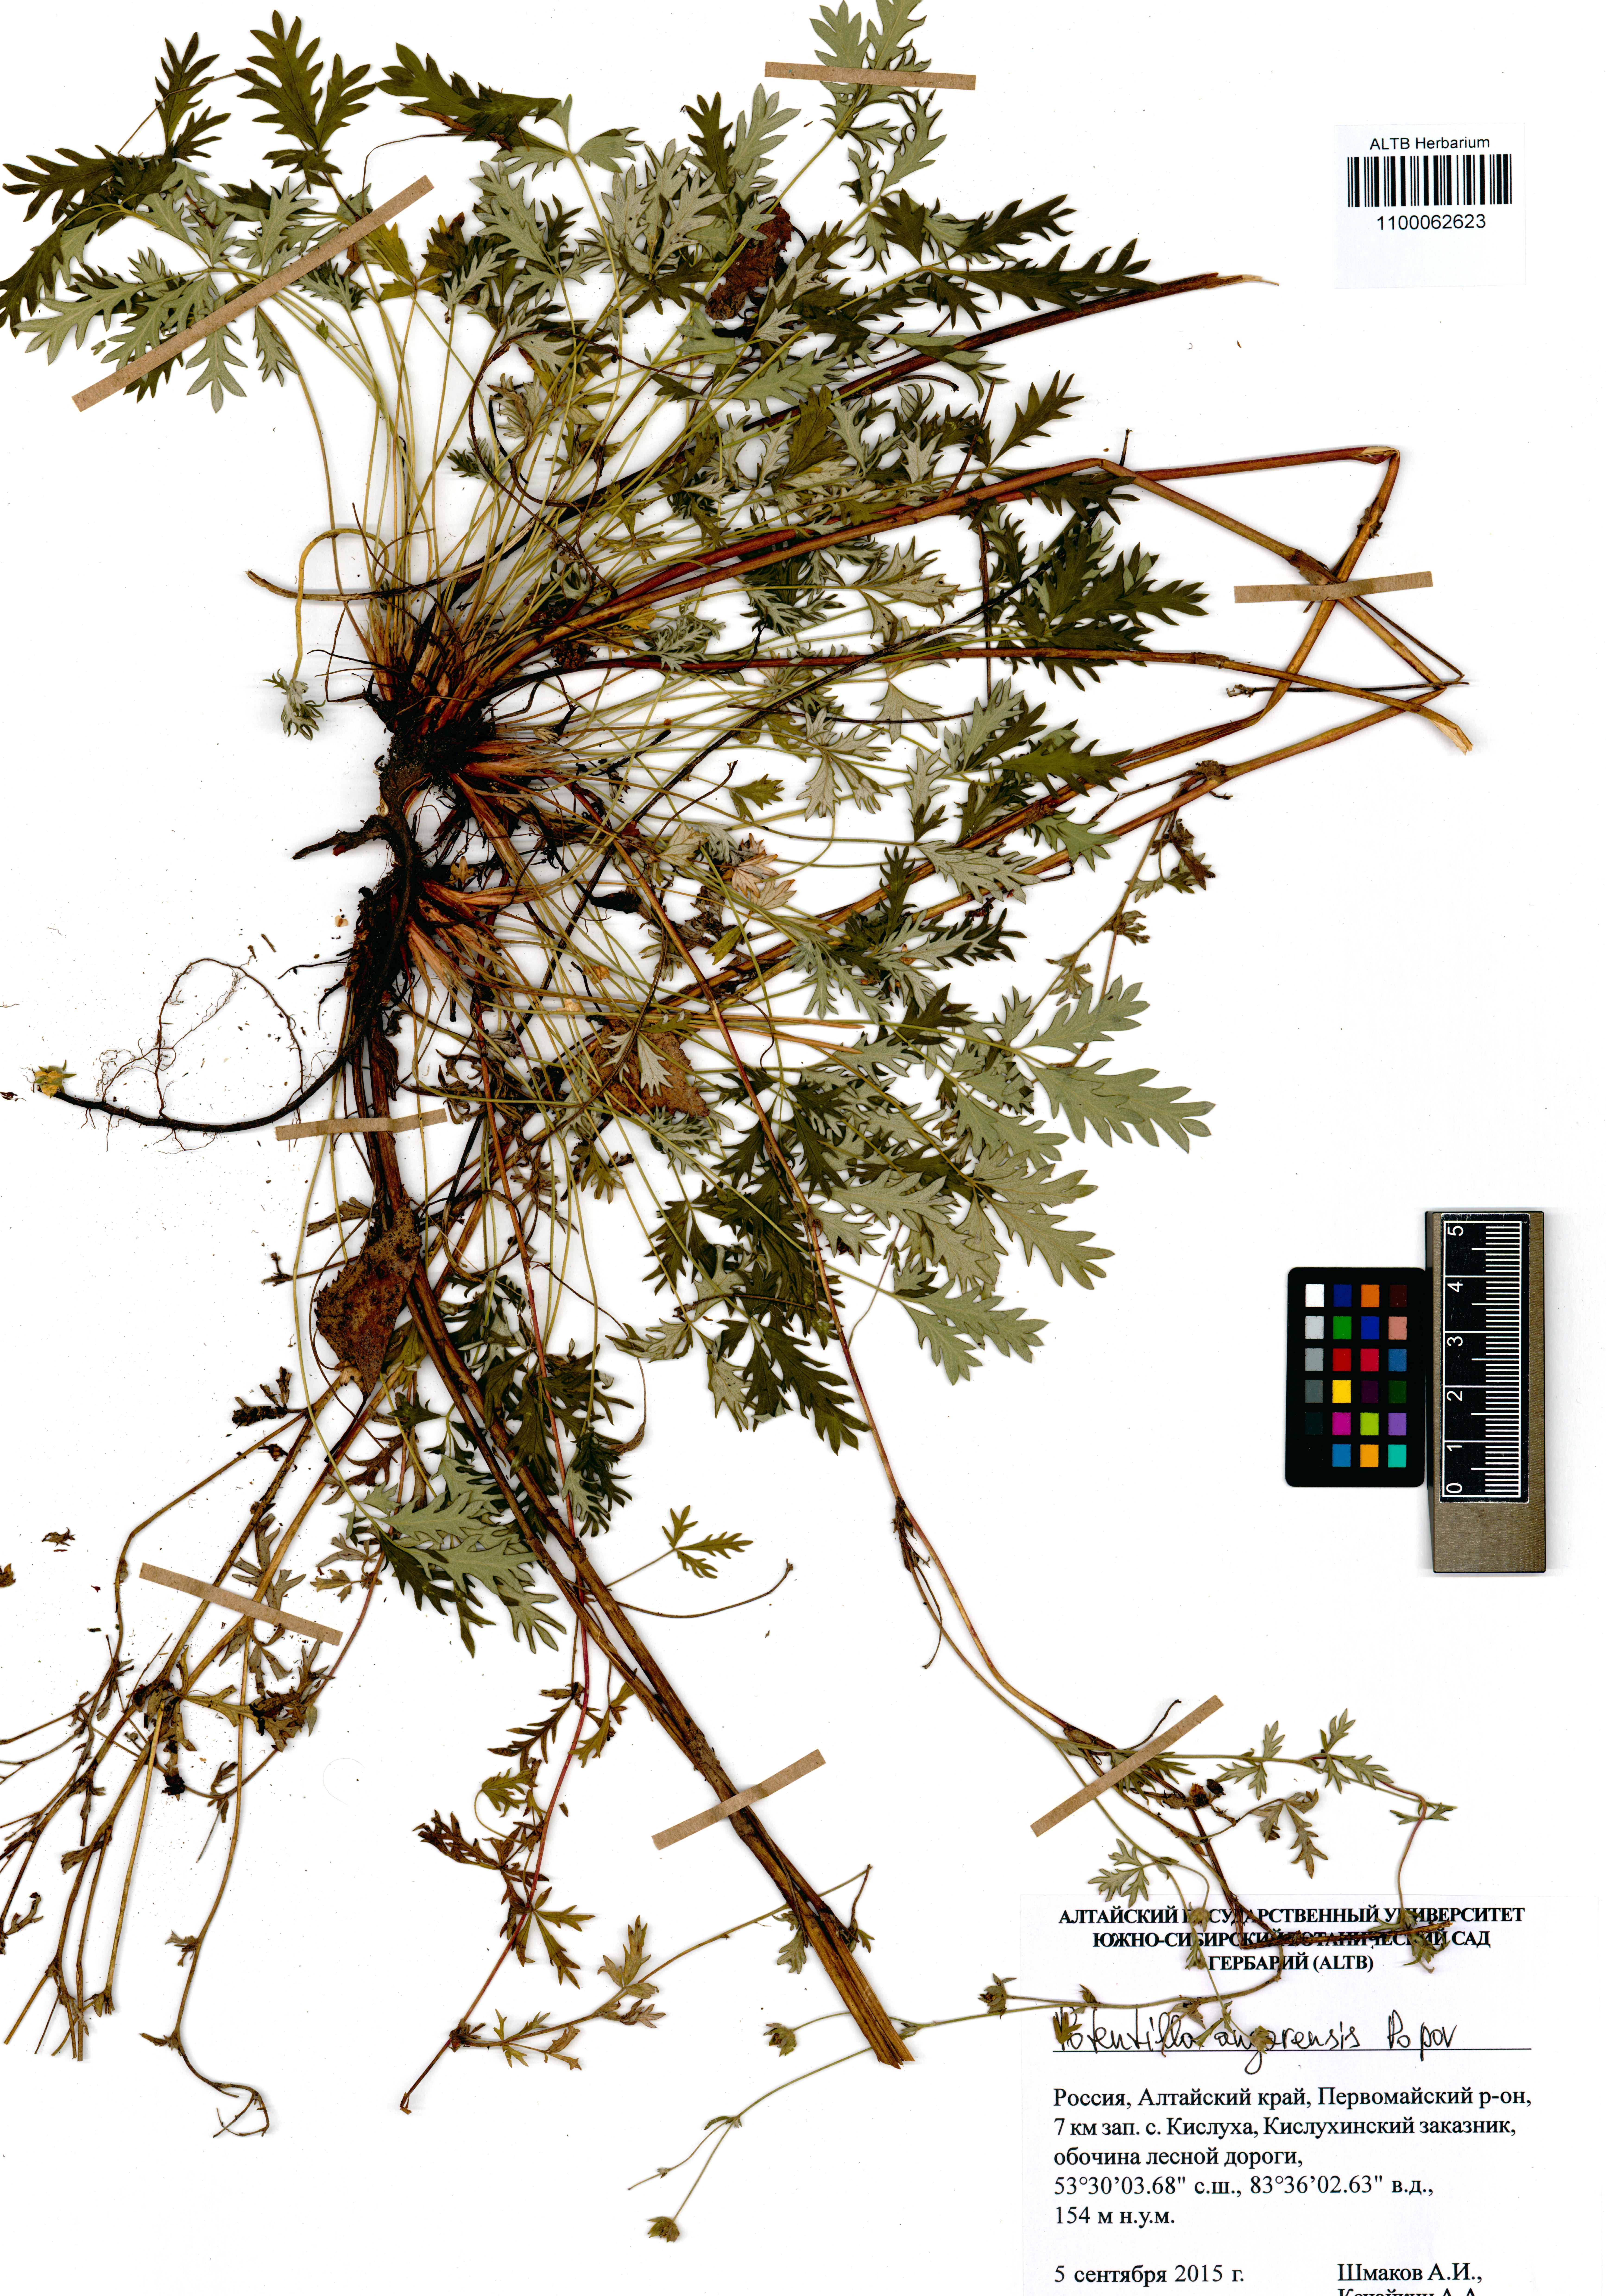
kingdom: Plantae
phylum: Tracheophyta
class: Magnoliopsida
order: Rosales
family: Rosaceae
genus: Potentilla
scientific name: Potentilla angarensis
